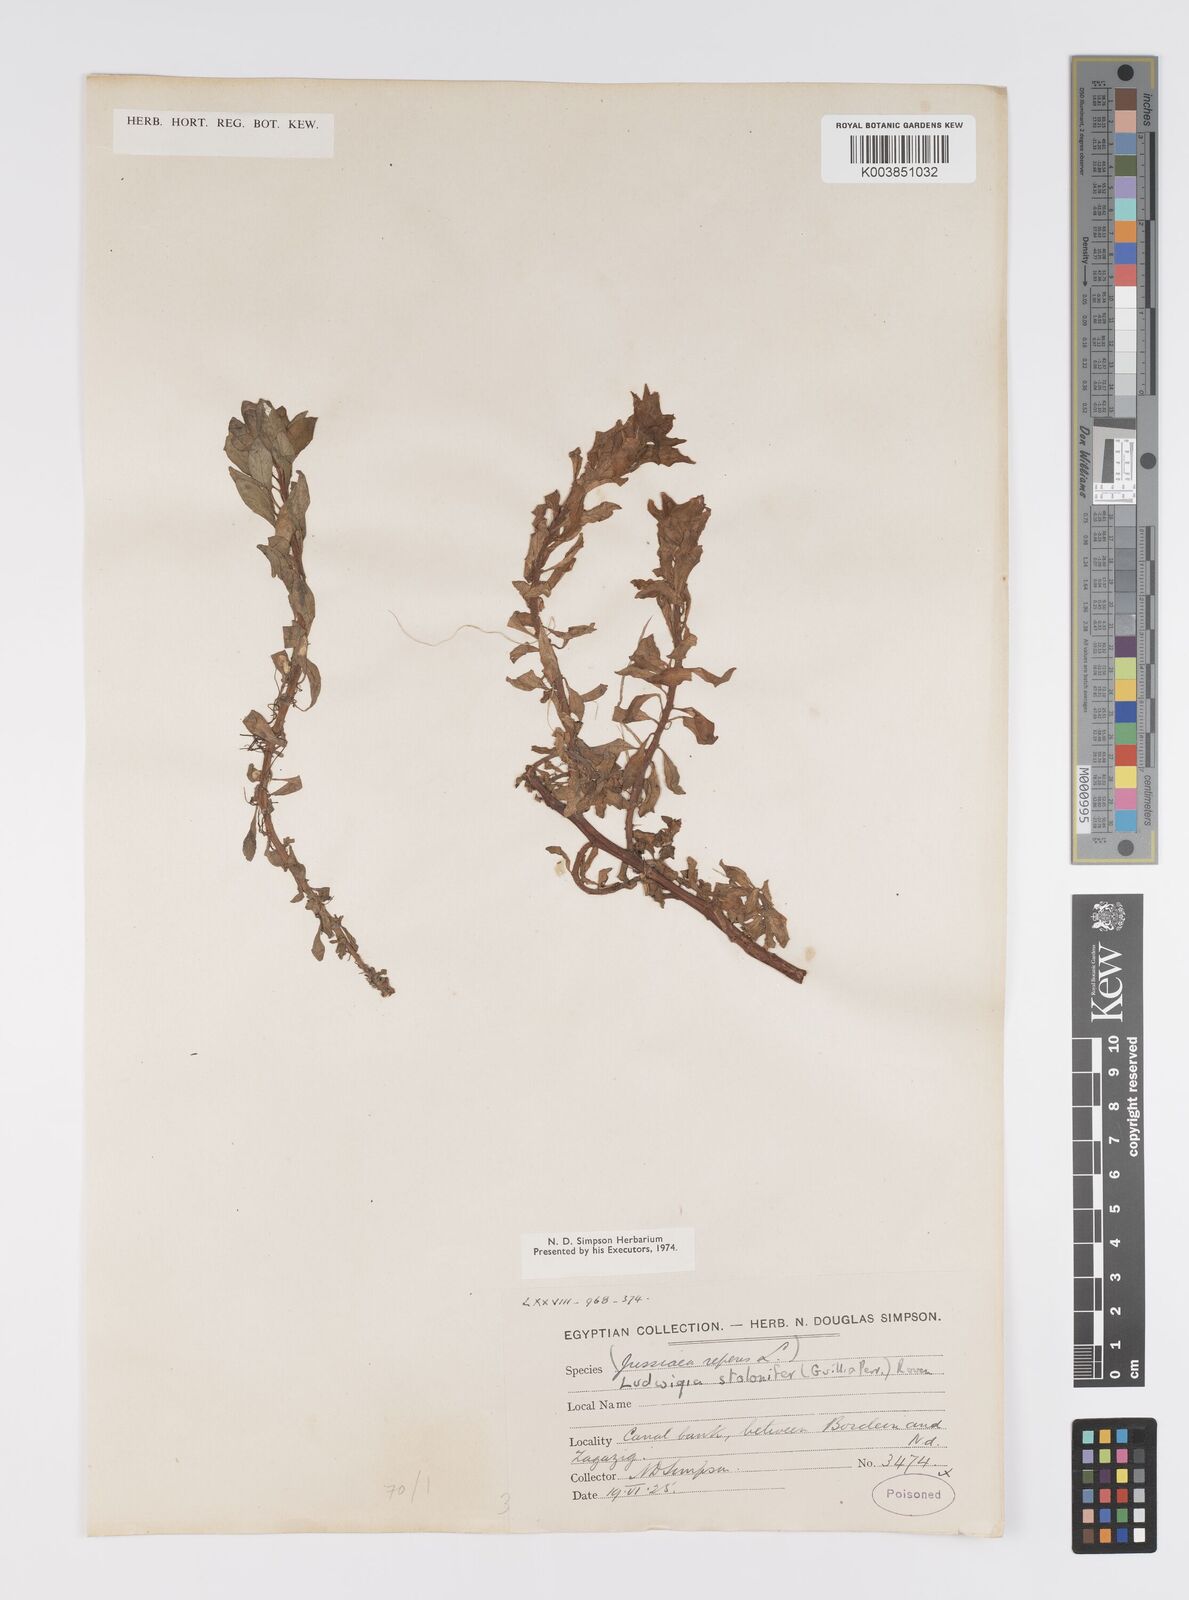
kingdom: Plantae
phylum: Tracheophyta
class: Magnoliopsida
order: Myrtales
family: Onagraceae
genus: Ludwigia
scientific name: Ludwigia adscendens
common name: Creeping water primrose
